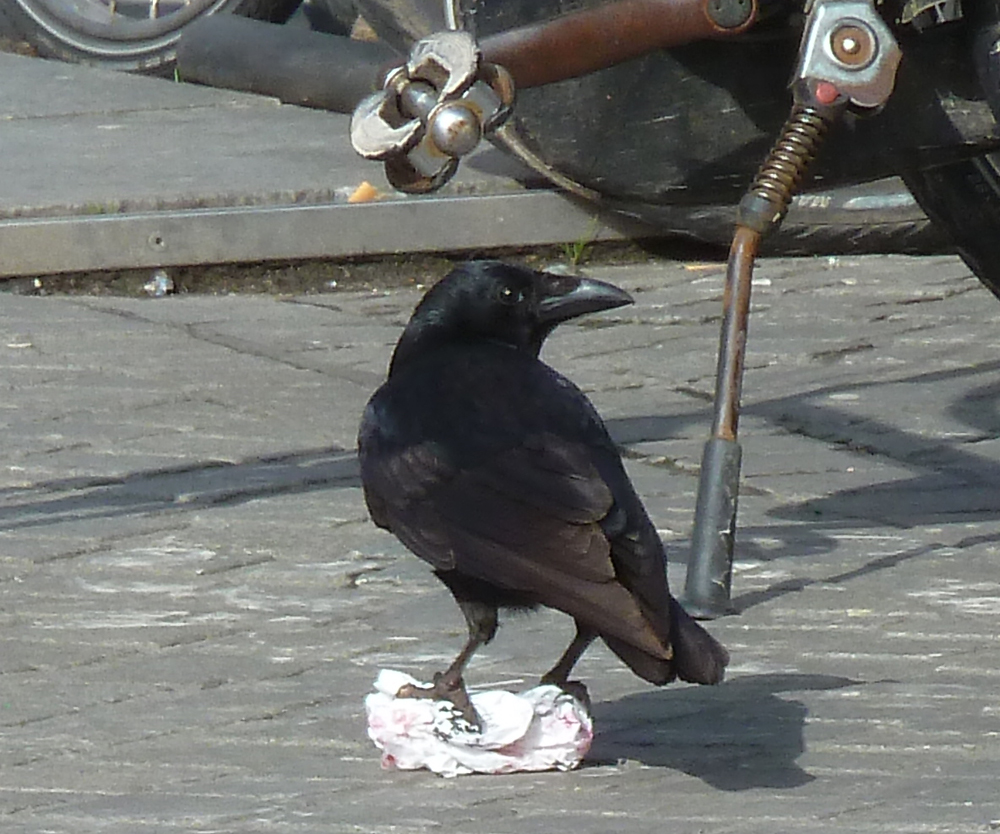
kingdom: Animalia
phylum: Chordata
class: Aves
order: Passeriformes
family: Corvidae
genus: Corvus
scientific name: Corvus corone
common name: Carrion crow
